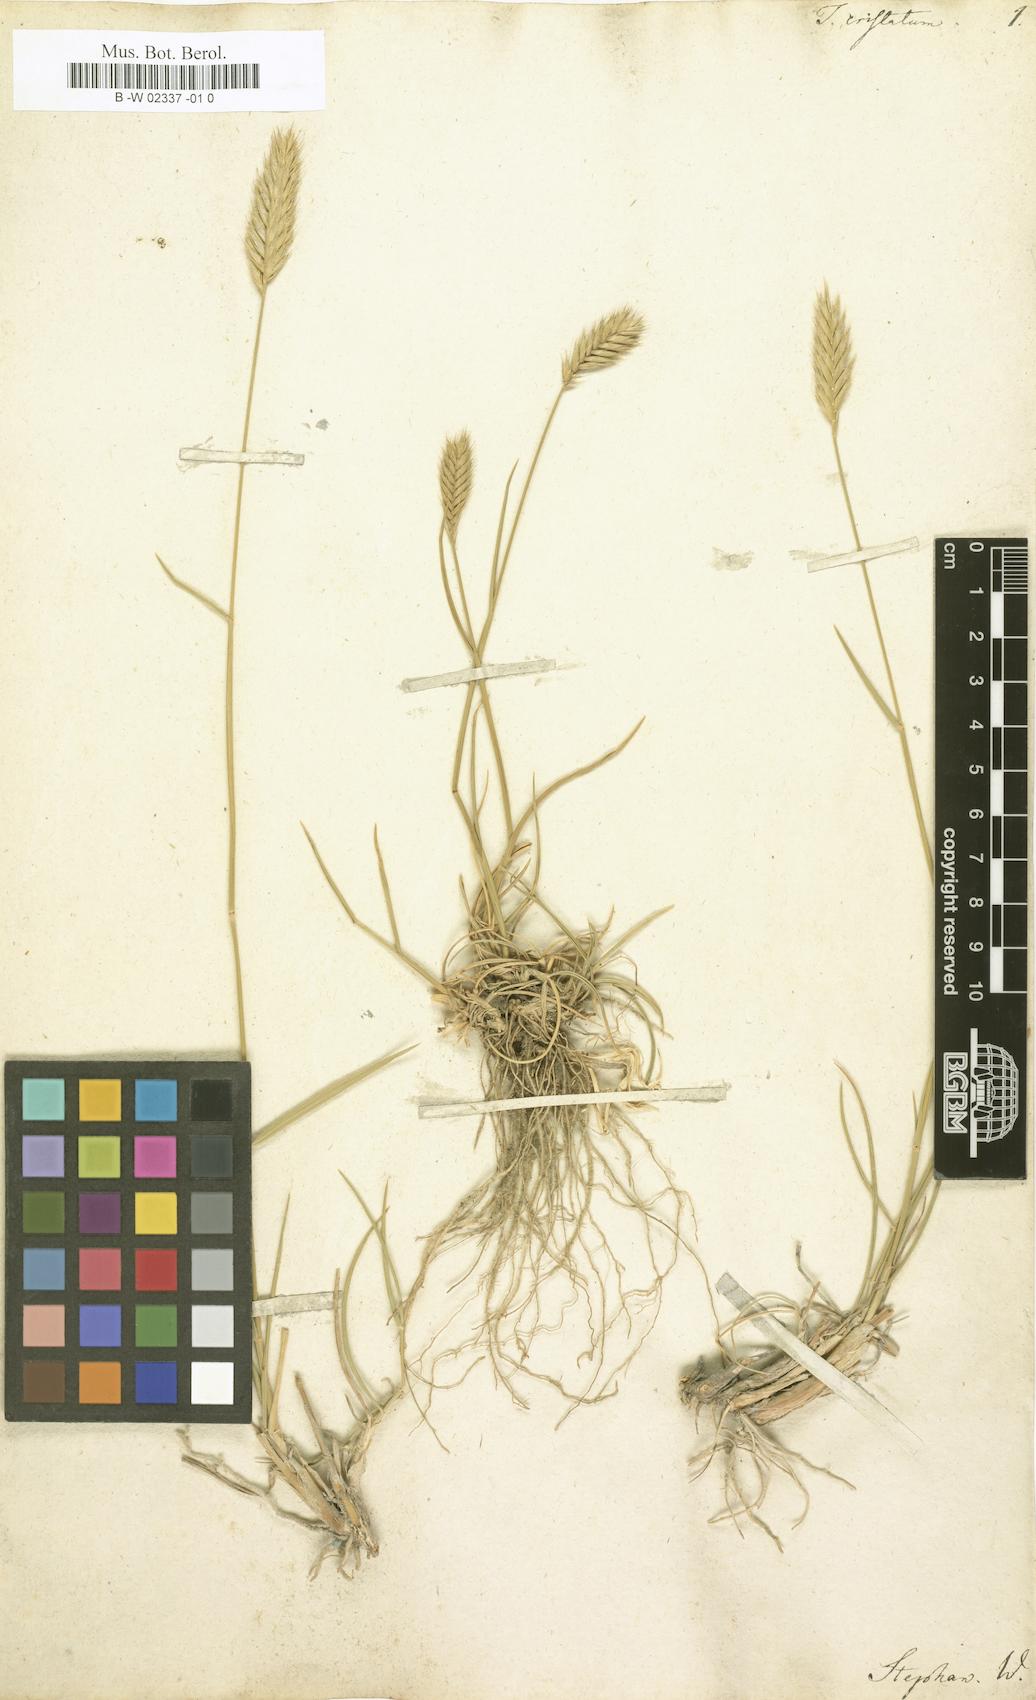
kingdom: Plantae
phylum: Tracheophyta
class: Liliopsida
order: Poales
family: Poaceae
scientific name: Poaceae
